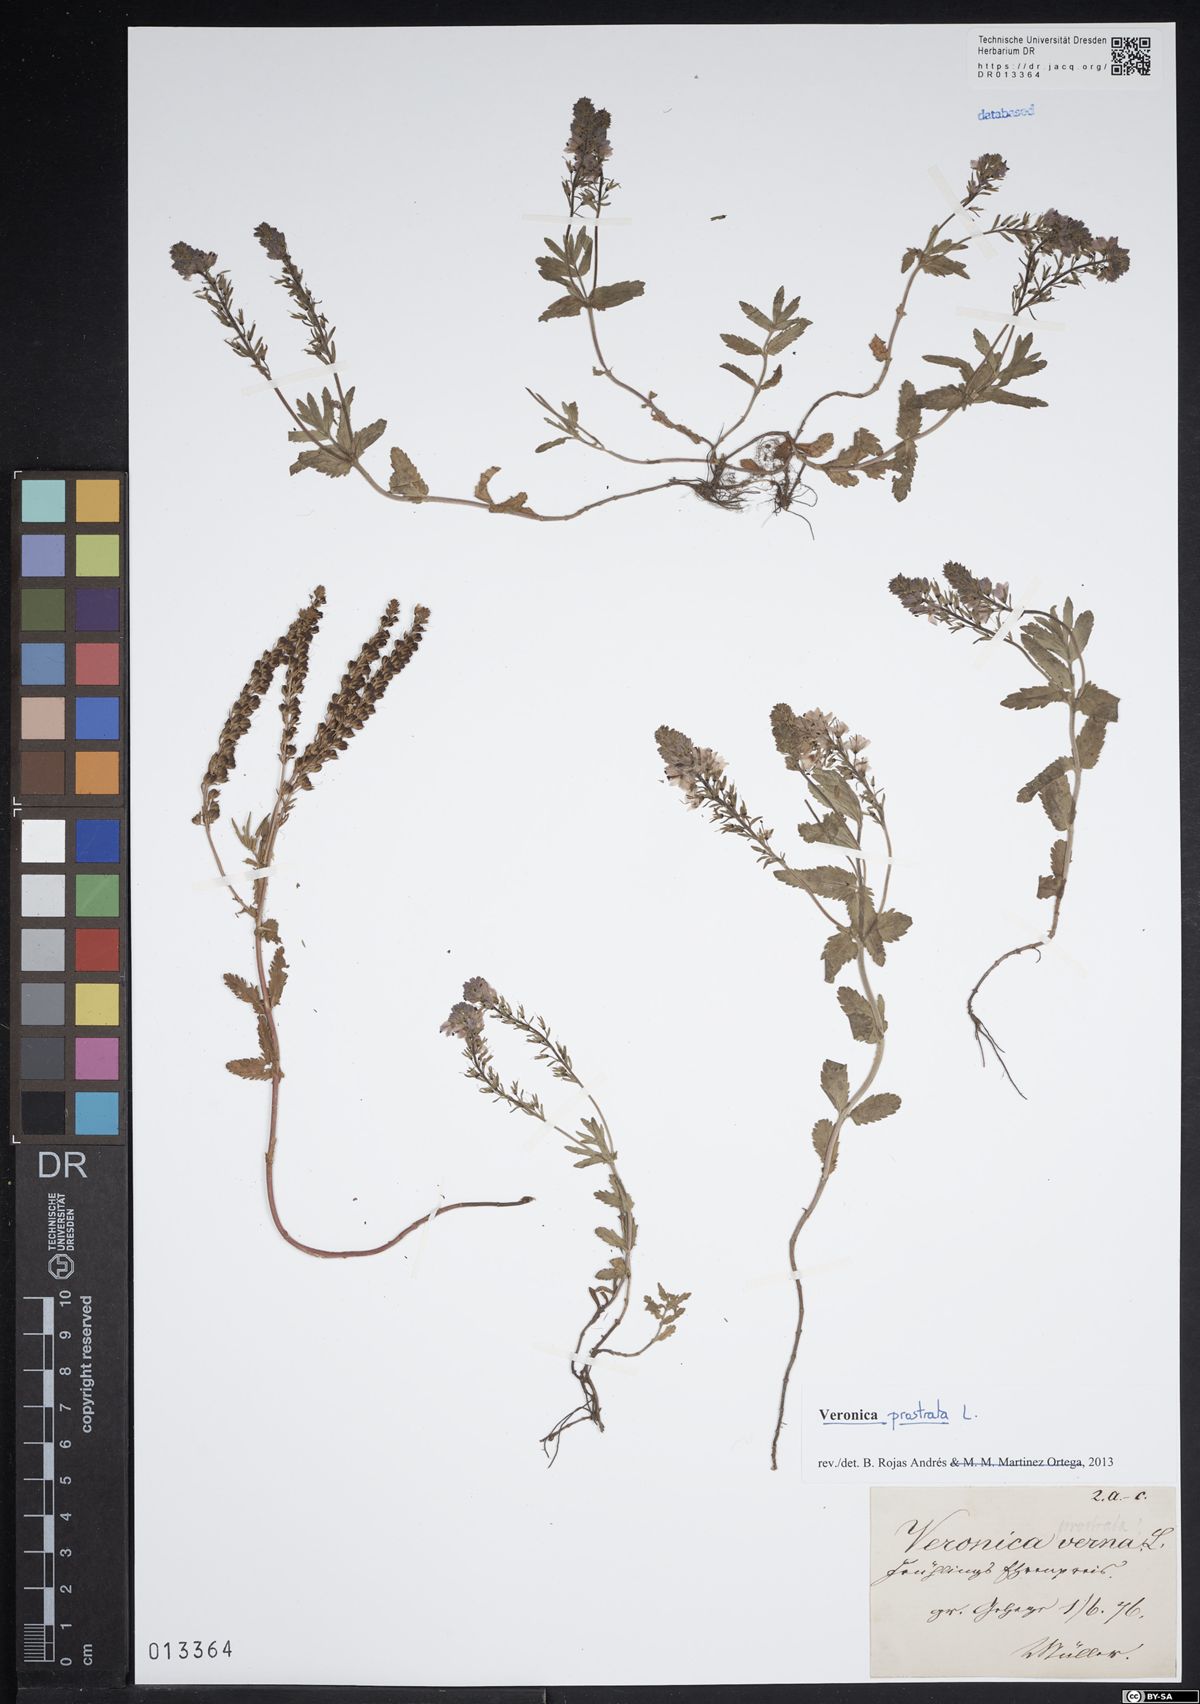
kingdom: Plantae
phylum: Tracheophyta
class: Magnoliopsida
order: Lamiales
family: Plantaginaceae
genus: Veronica
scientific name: Veronica prostrata
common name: Prostrate speedwell
